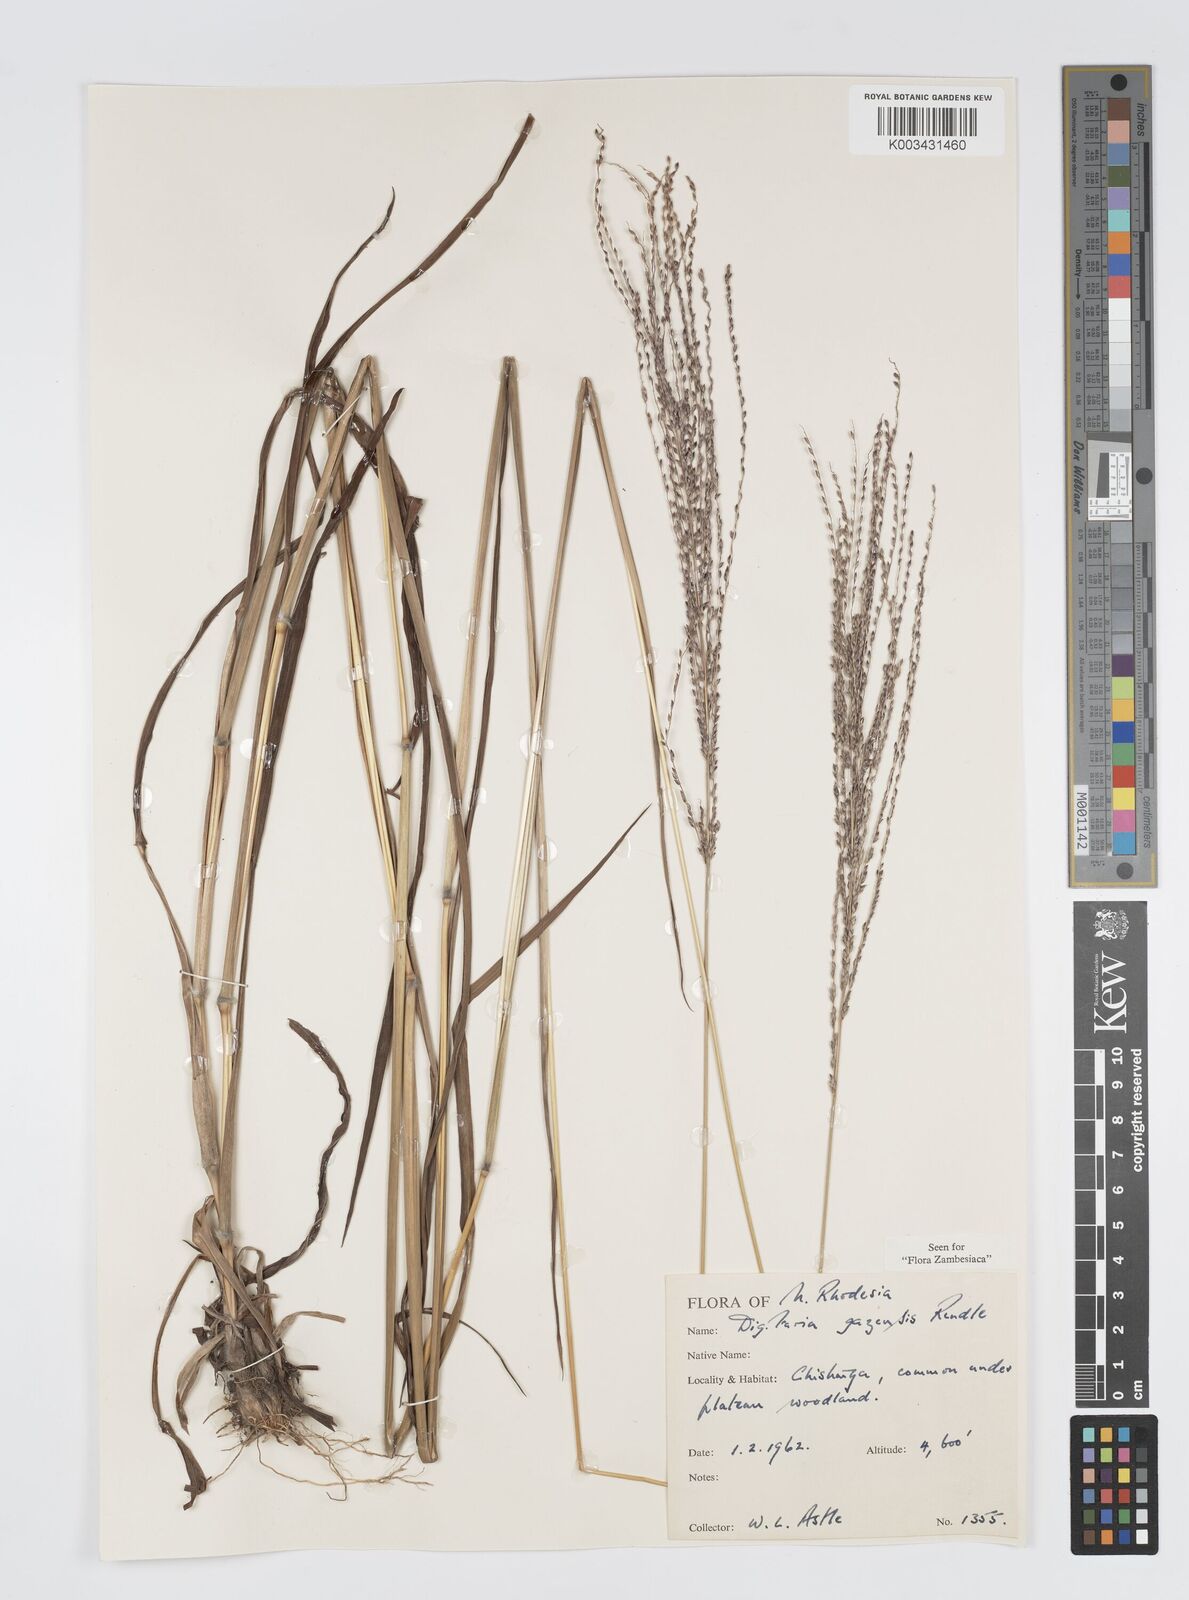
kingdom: Plantae
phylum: Tracheophyta
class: Liliopsida
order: Poales
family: Poaceae
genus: Digitaria
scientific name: Digitaria gazensis
